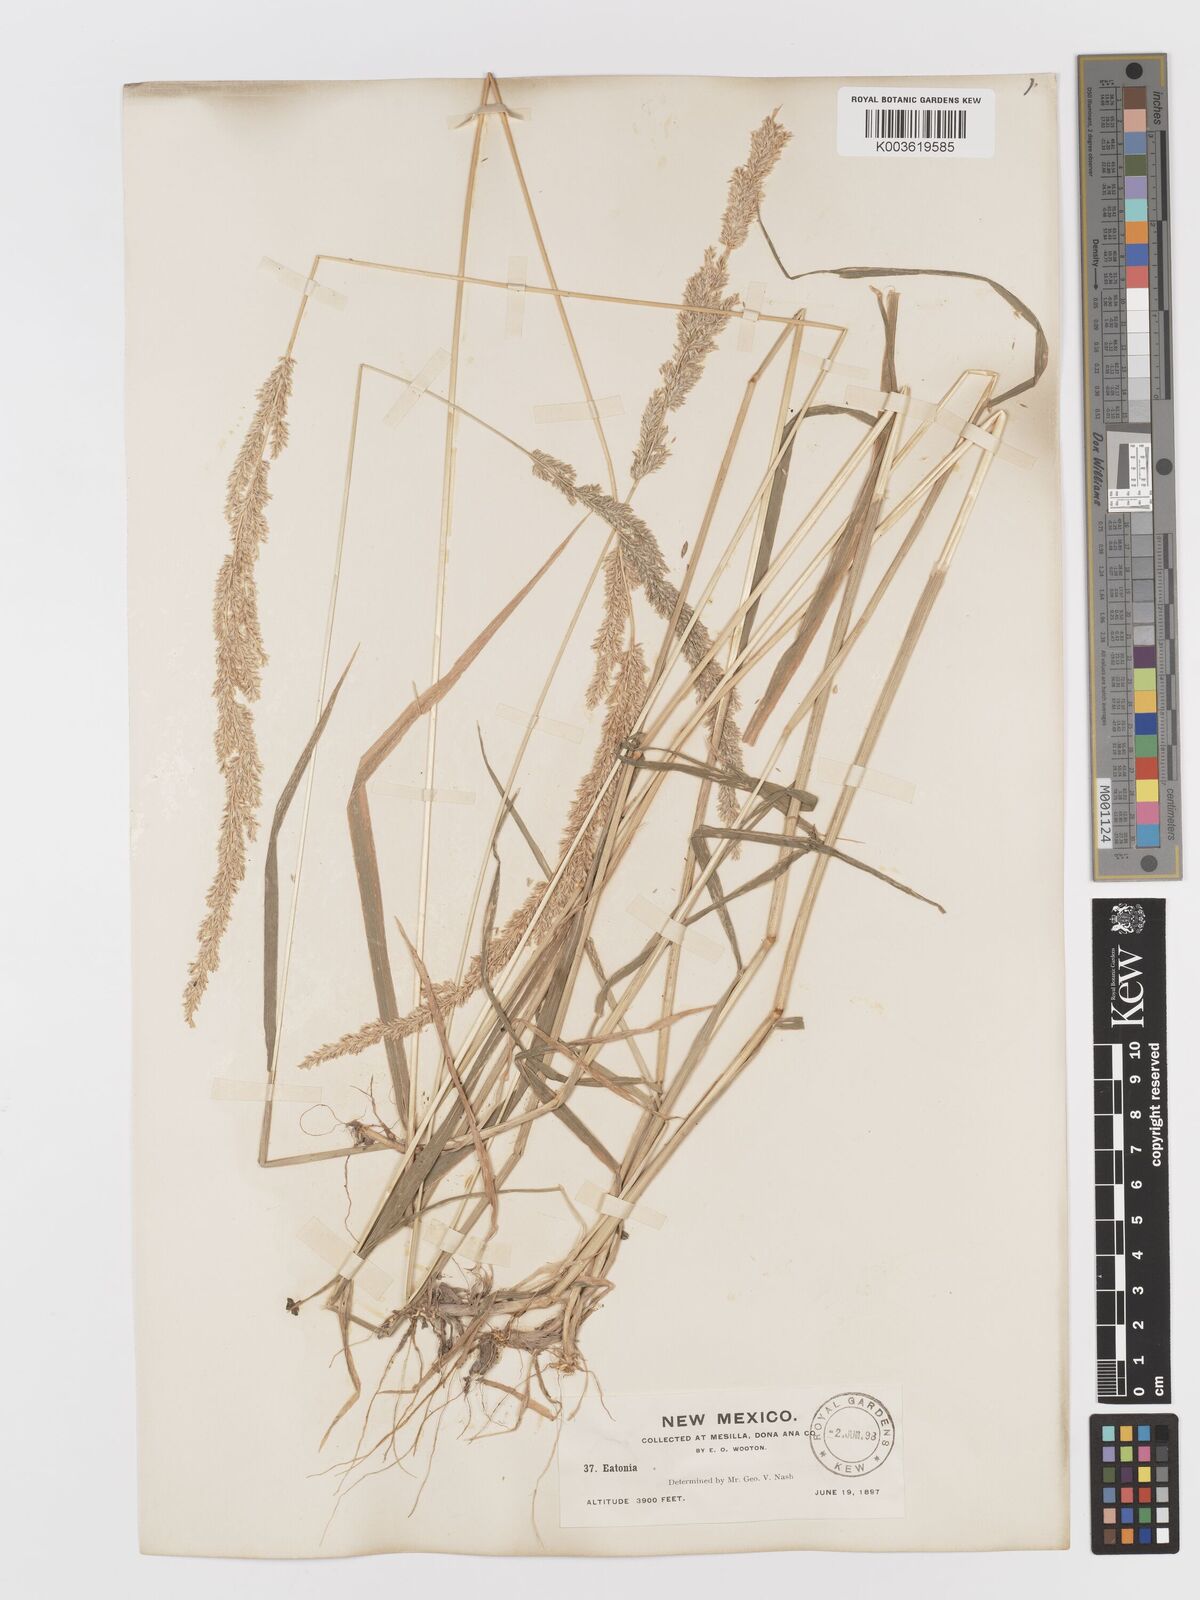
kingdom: Plantae
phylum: Tracheophyta
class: Liliopsida
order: Poales
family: Poaceae
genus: Sphenopholis
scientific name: Sphenopholis obtusata
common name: Prairie grass
